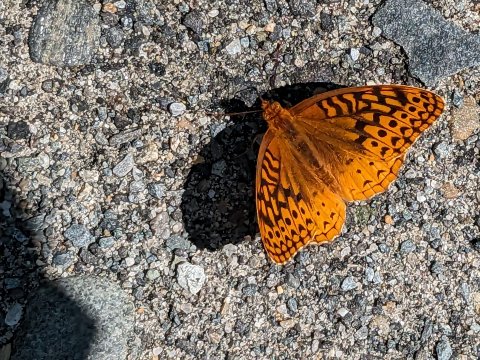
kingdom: Animalia
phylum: Arthropoda
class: Insecta
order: Lepidoptera
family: Nymphalidae
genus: Speyeria
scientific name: Speyeria cybele
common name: Great Spangled Fritillary
